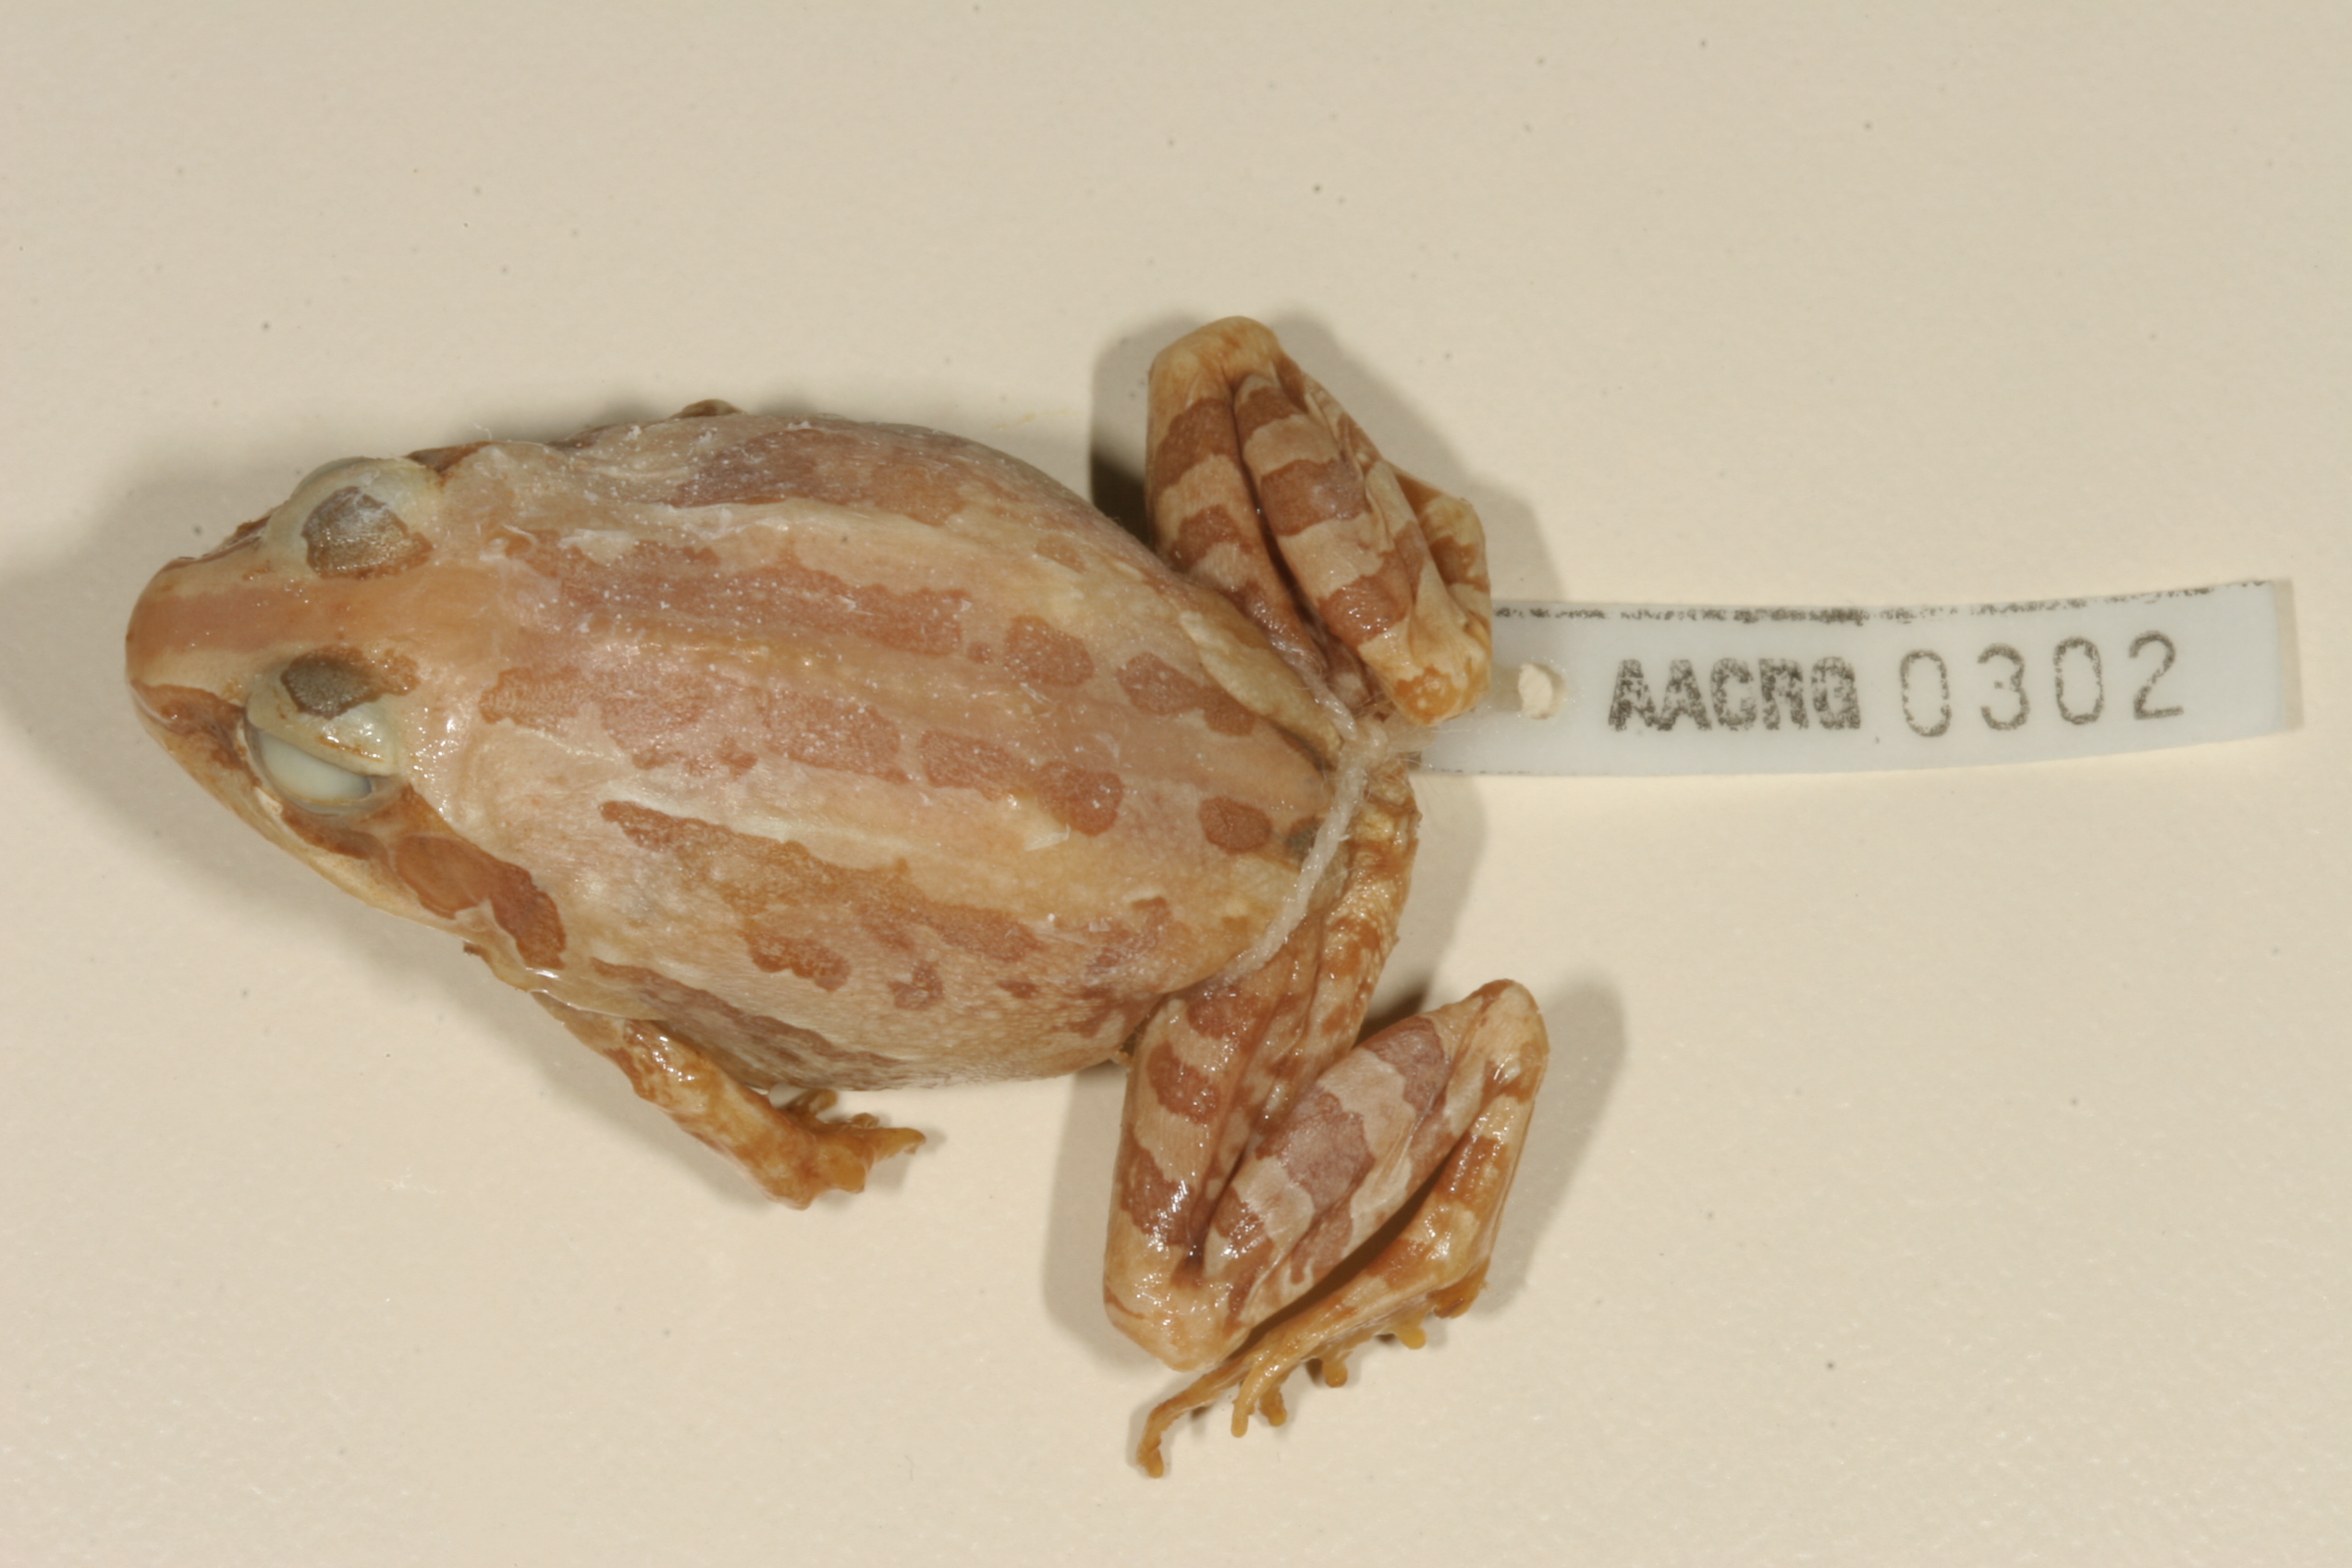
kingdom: Animalia
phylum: Chordata
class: Amphibia
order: Anura
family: Ptychadenidae
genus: Hildebrandtia
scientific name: Hildebrandtia ornata
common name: Ornate frog
